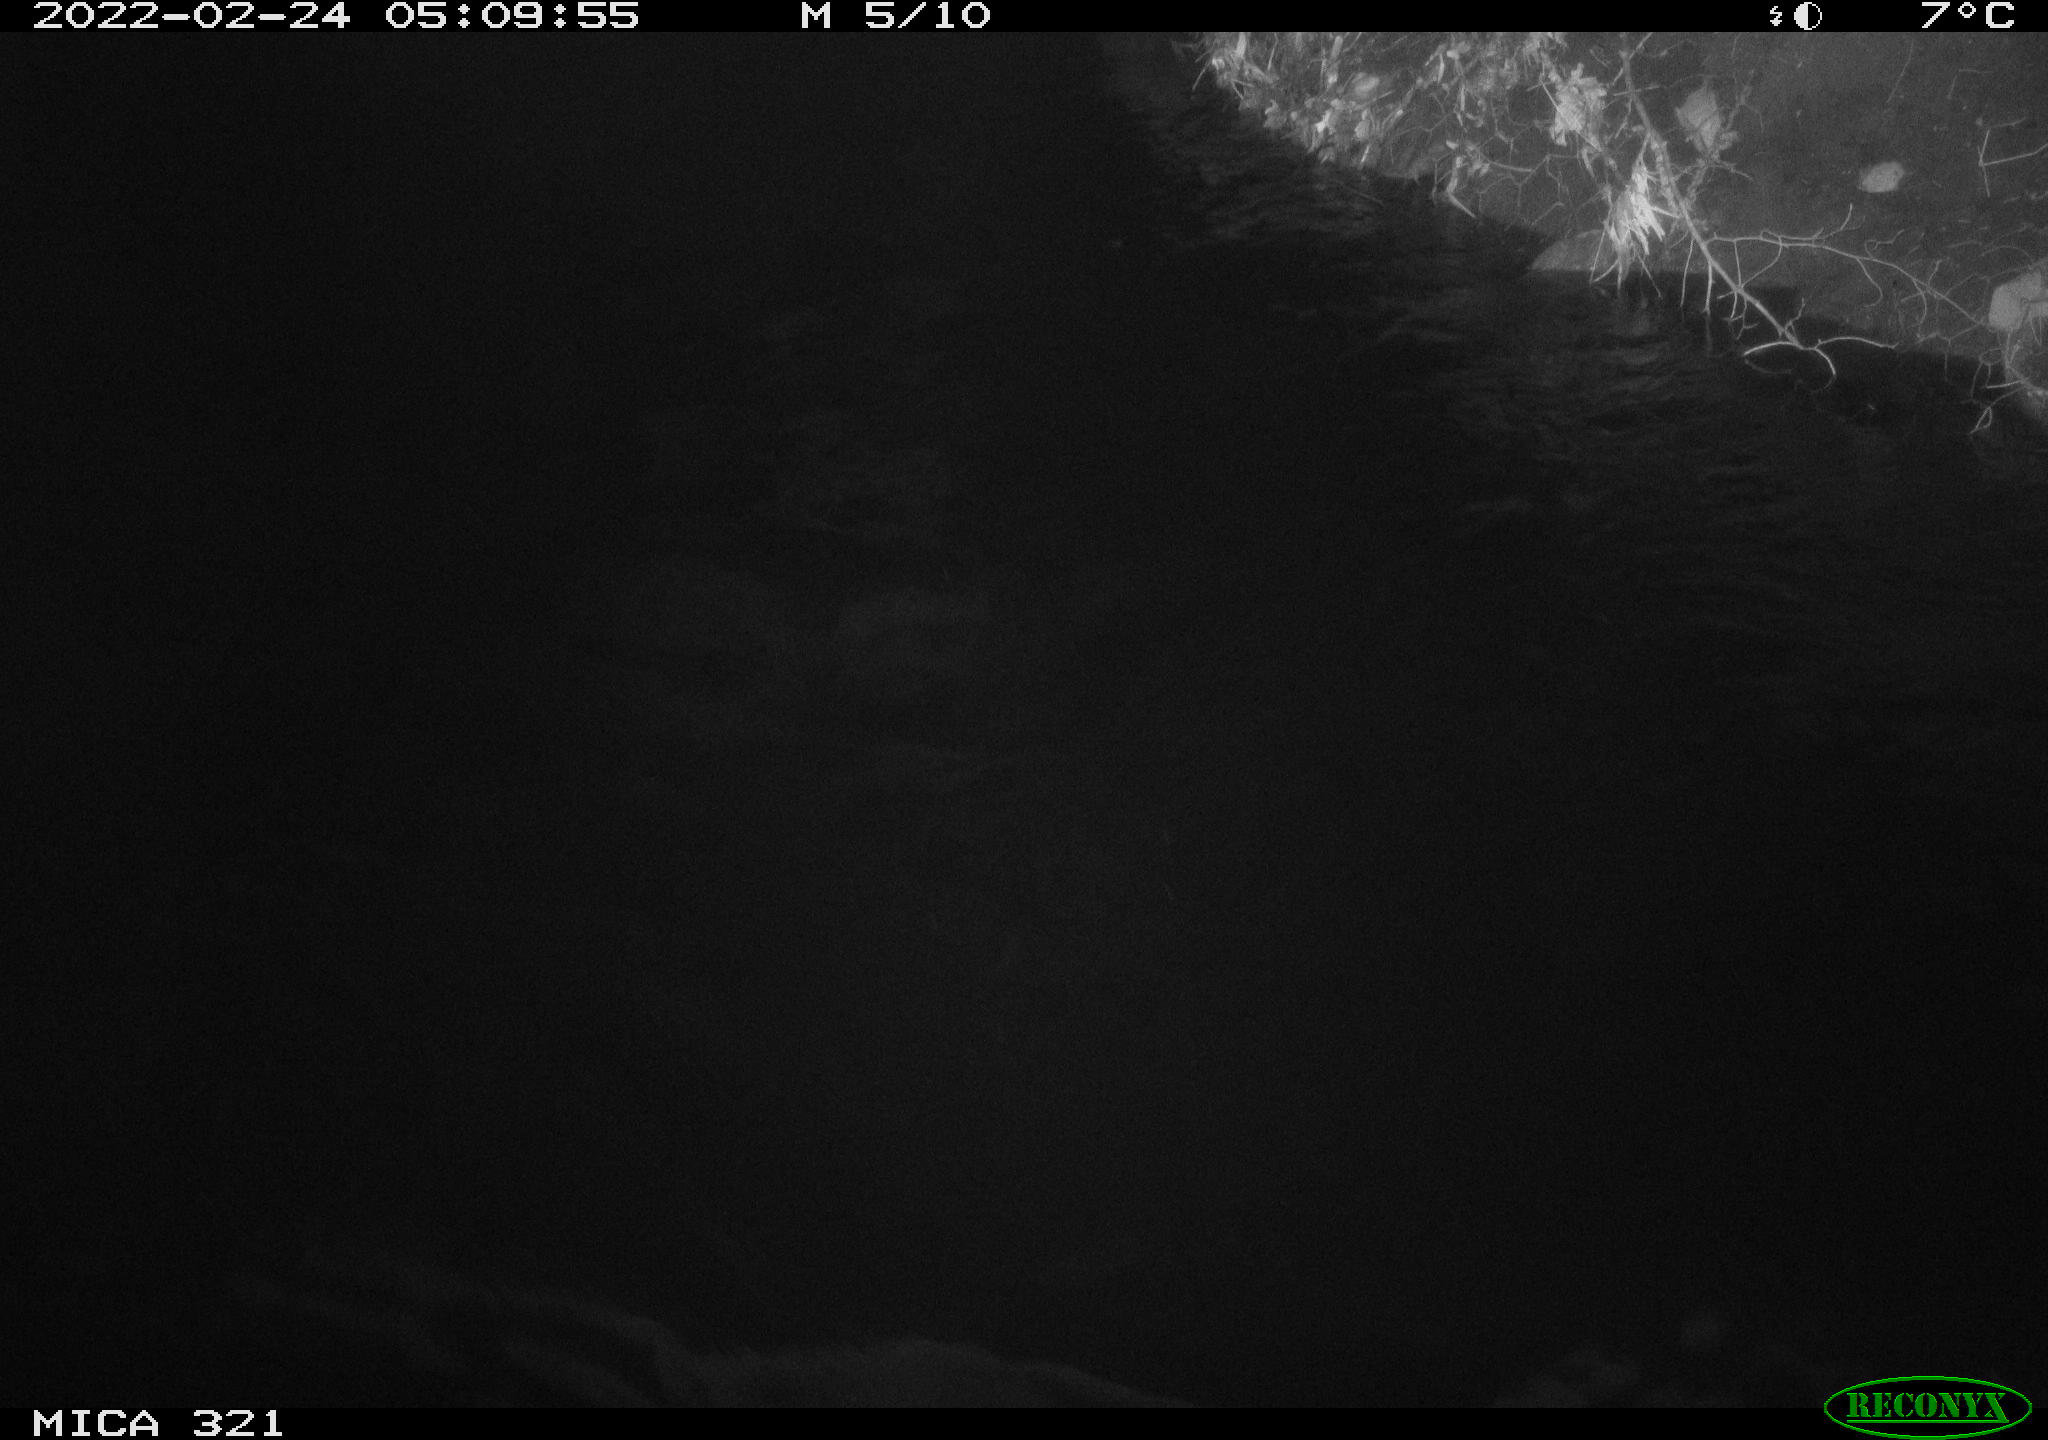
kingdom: Animalia
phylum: Chordata
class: Aves
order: Anseriformes
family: Anatidae
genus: Anas
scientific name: Anas platyrhynchos
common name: Mallard
